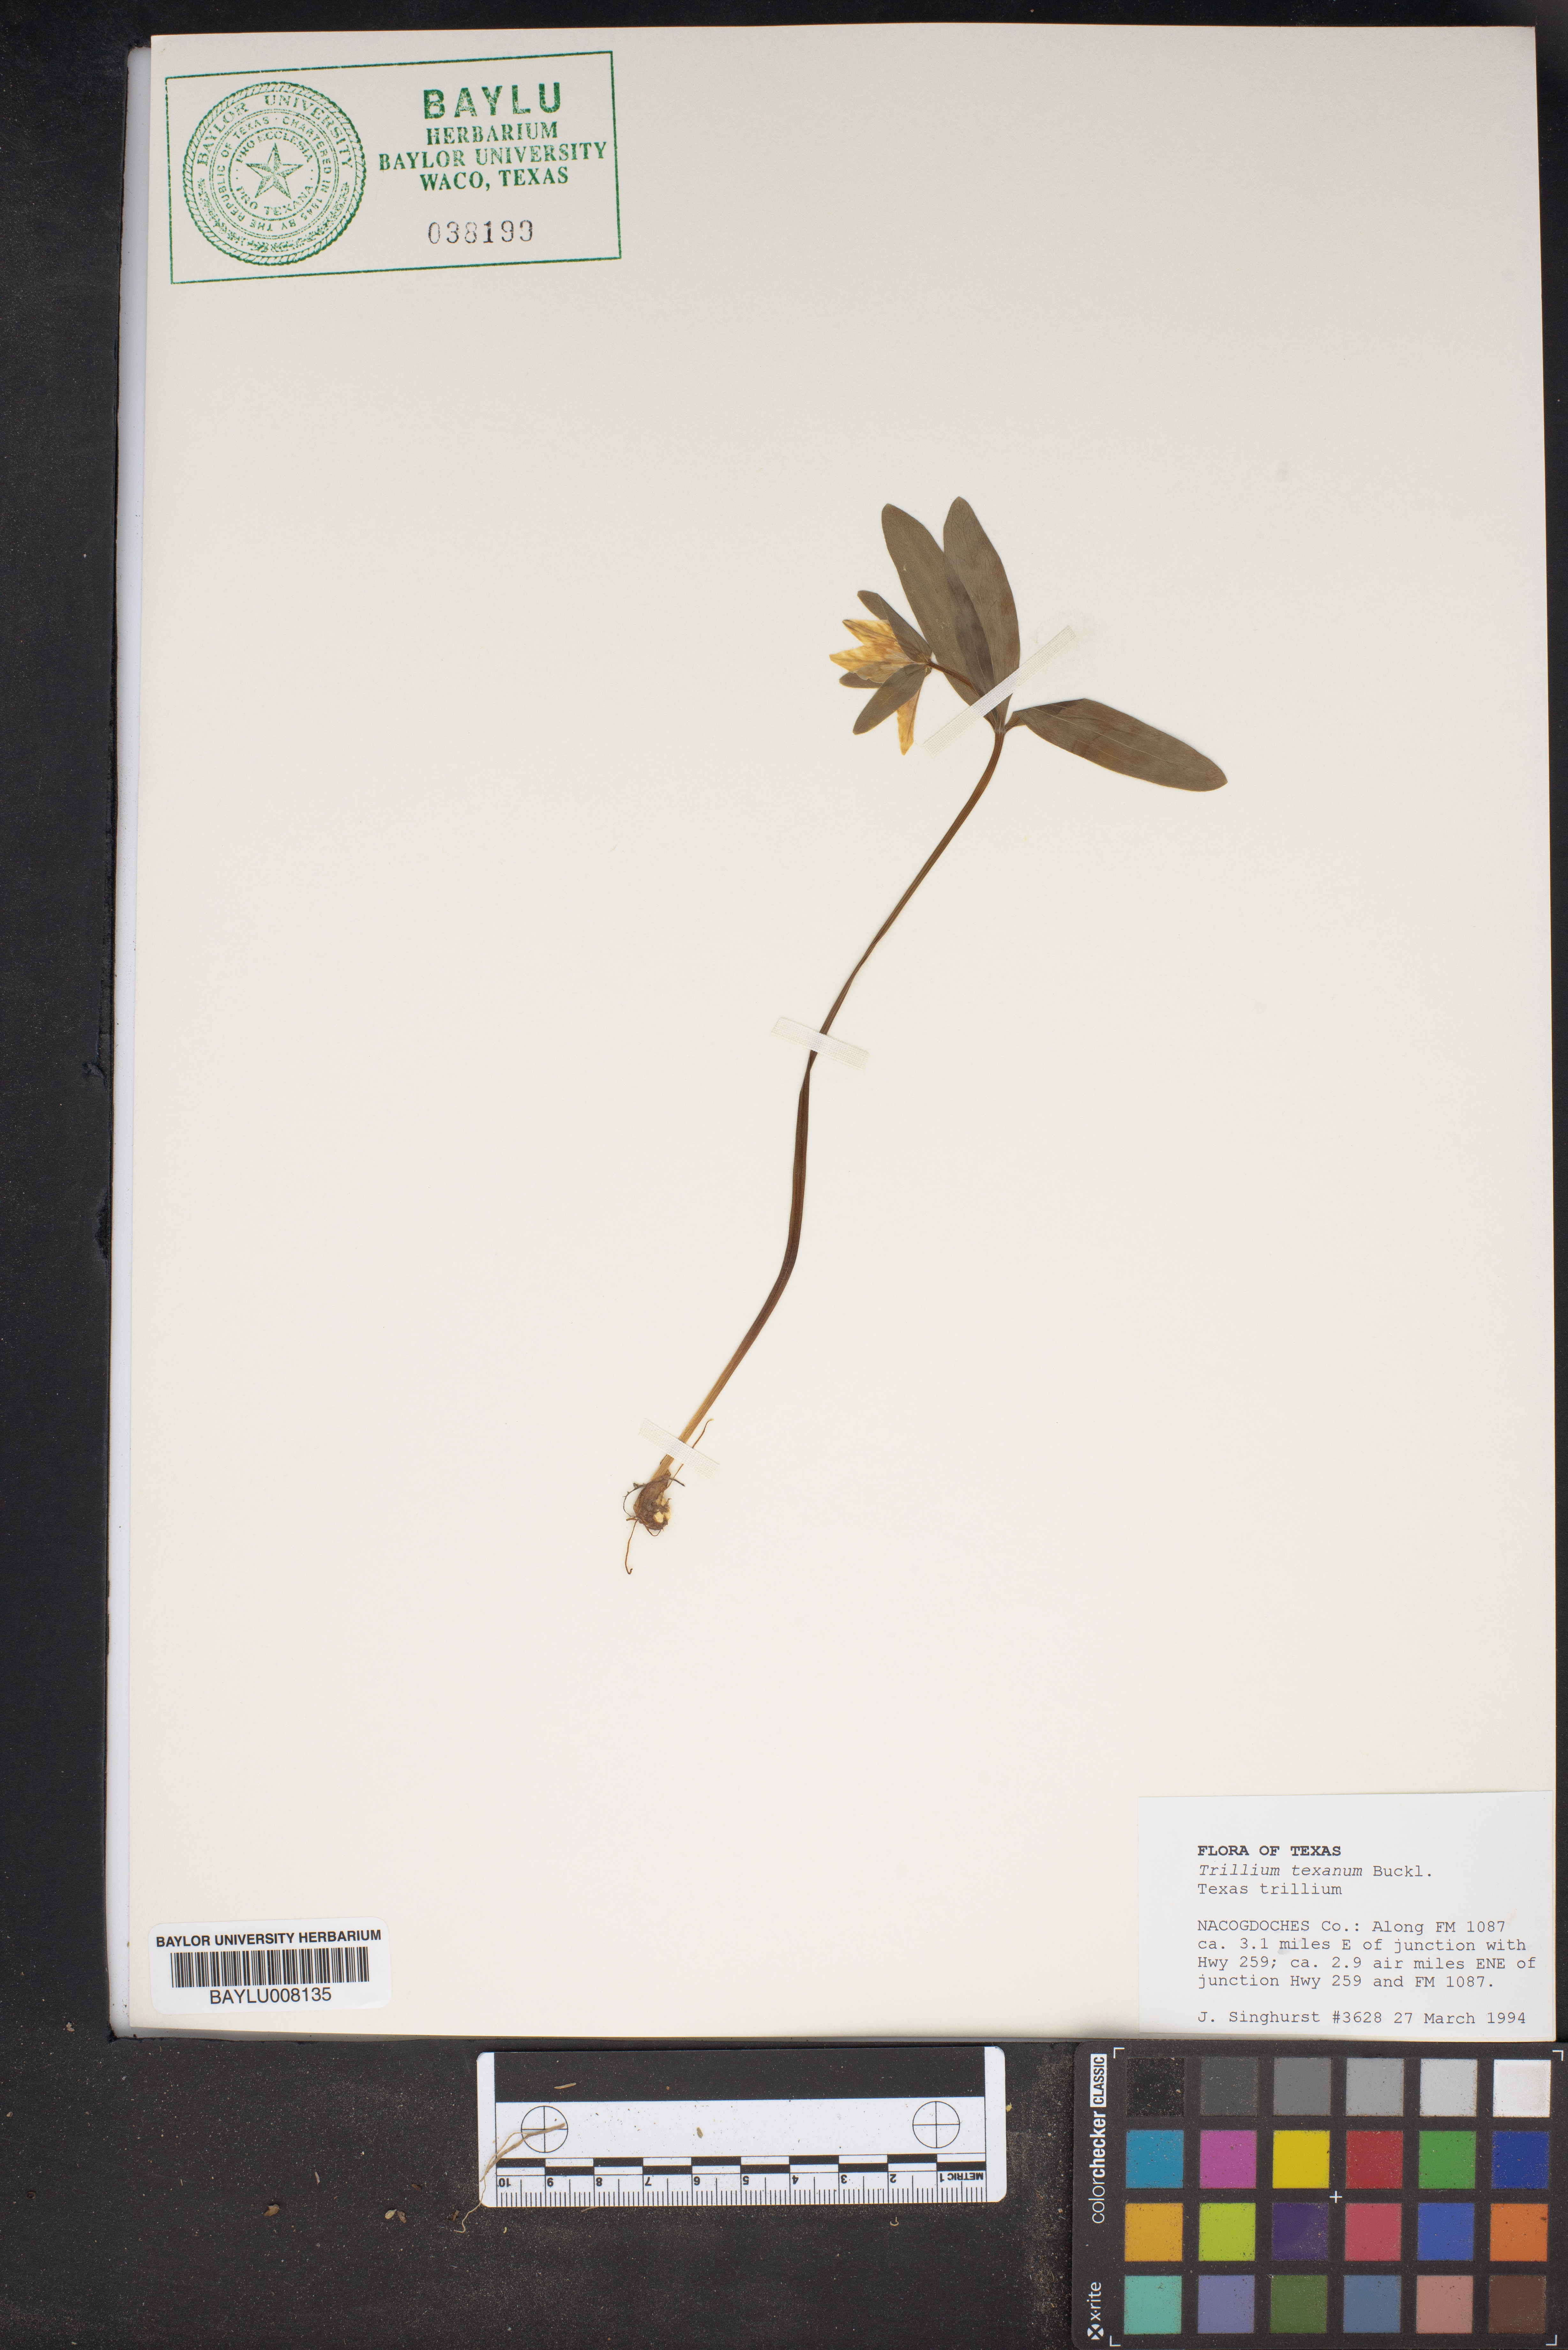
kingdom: Plantae
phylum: Tracheophyta
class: Liliopsida
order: Liliales
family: Melanthiaceae
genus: Trillium
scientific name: Trillium pusillum
